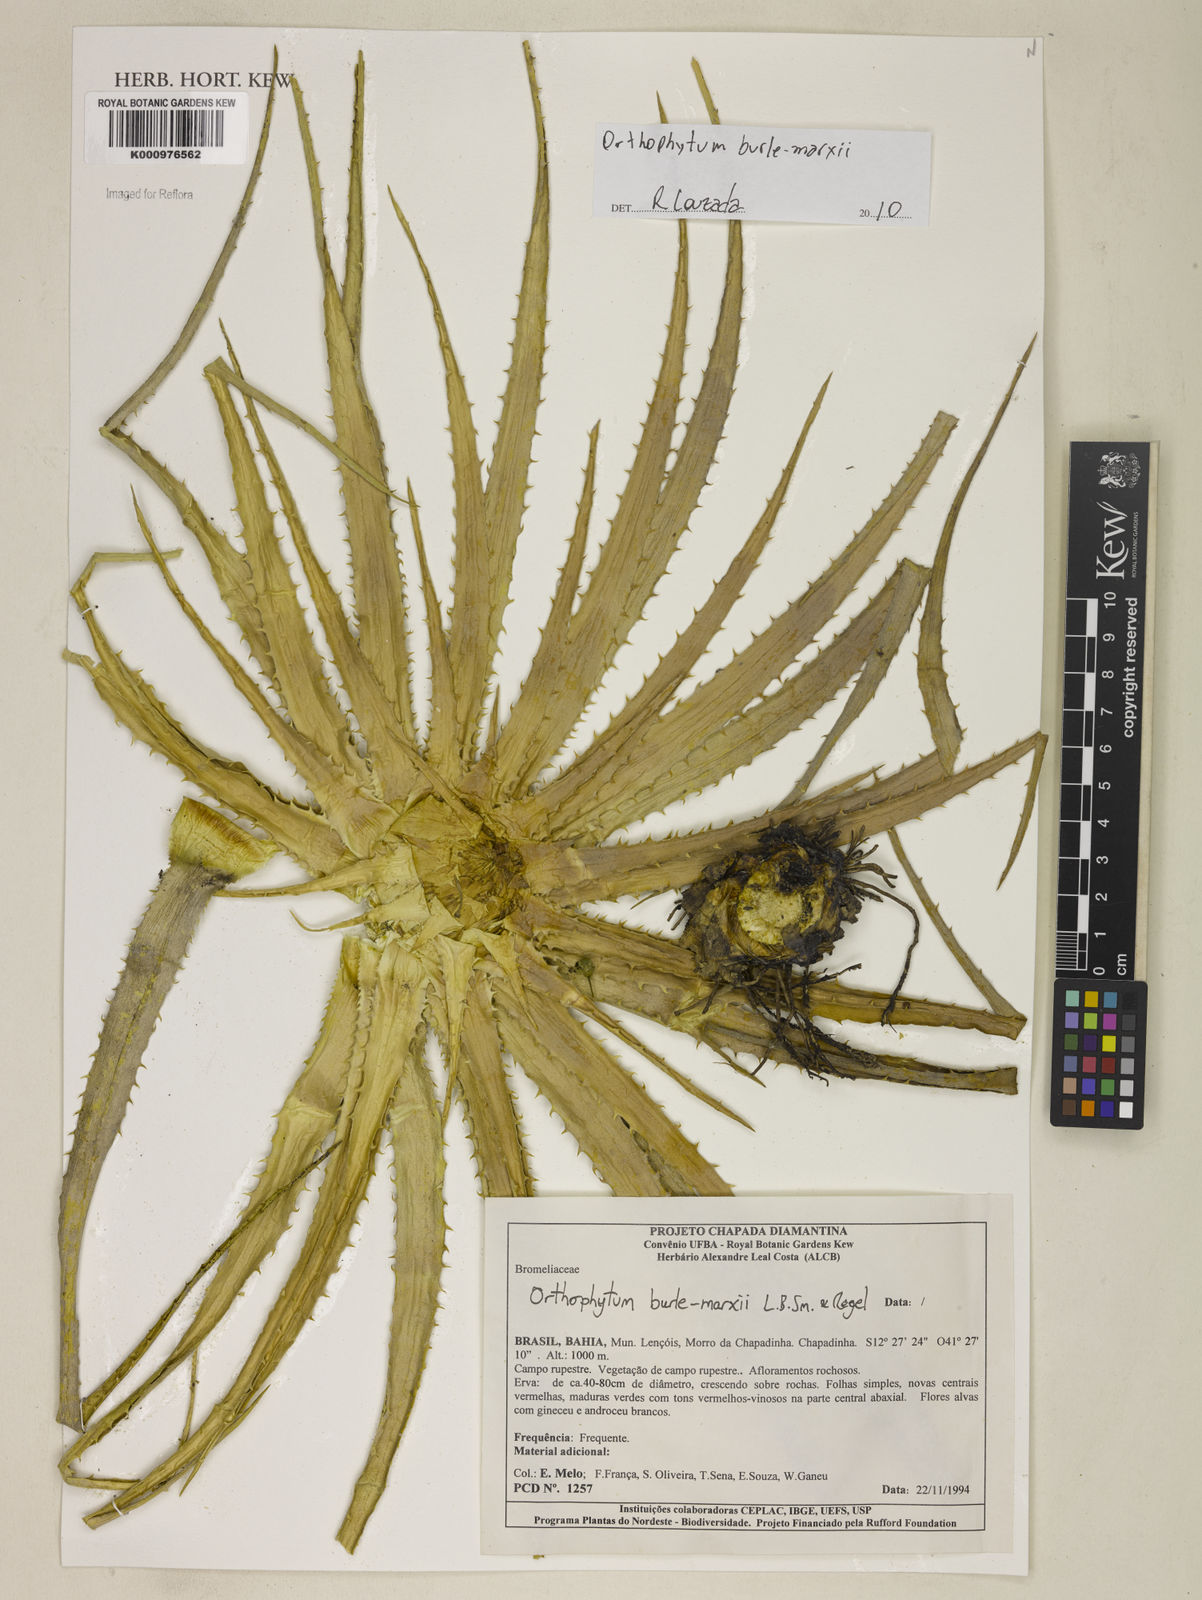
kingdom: Plantae
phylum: Tracheophyta
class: Liliopsida
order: Poales
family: Bromeliaceae
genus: Sincoraea
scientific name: Sincoraea burle-marxii
